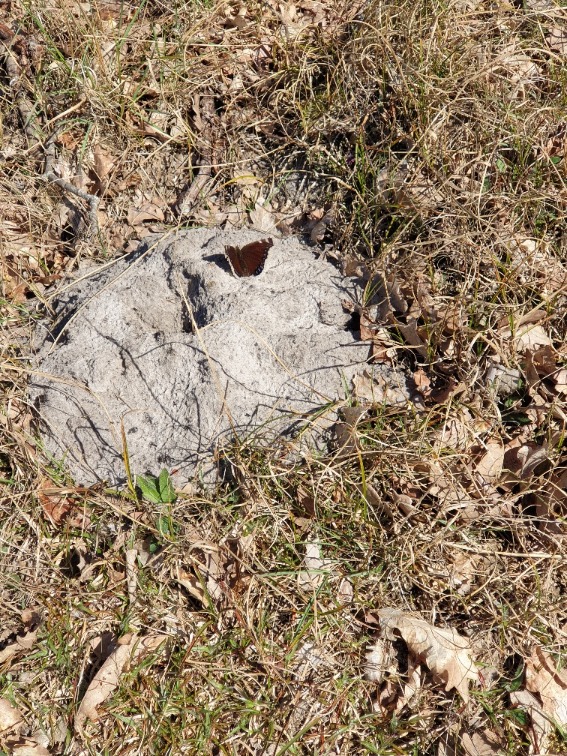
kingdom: Animalia
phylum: Arthropoda
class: Insecta
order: Lepidoptera
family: Nymphalidae
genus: Nymphalis
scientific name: Nymphalis antiopa
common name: Sørgekåbe
